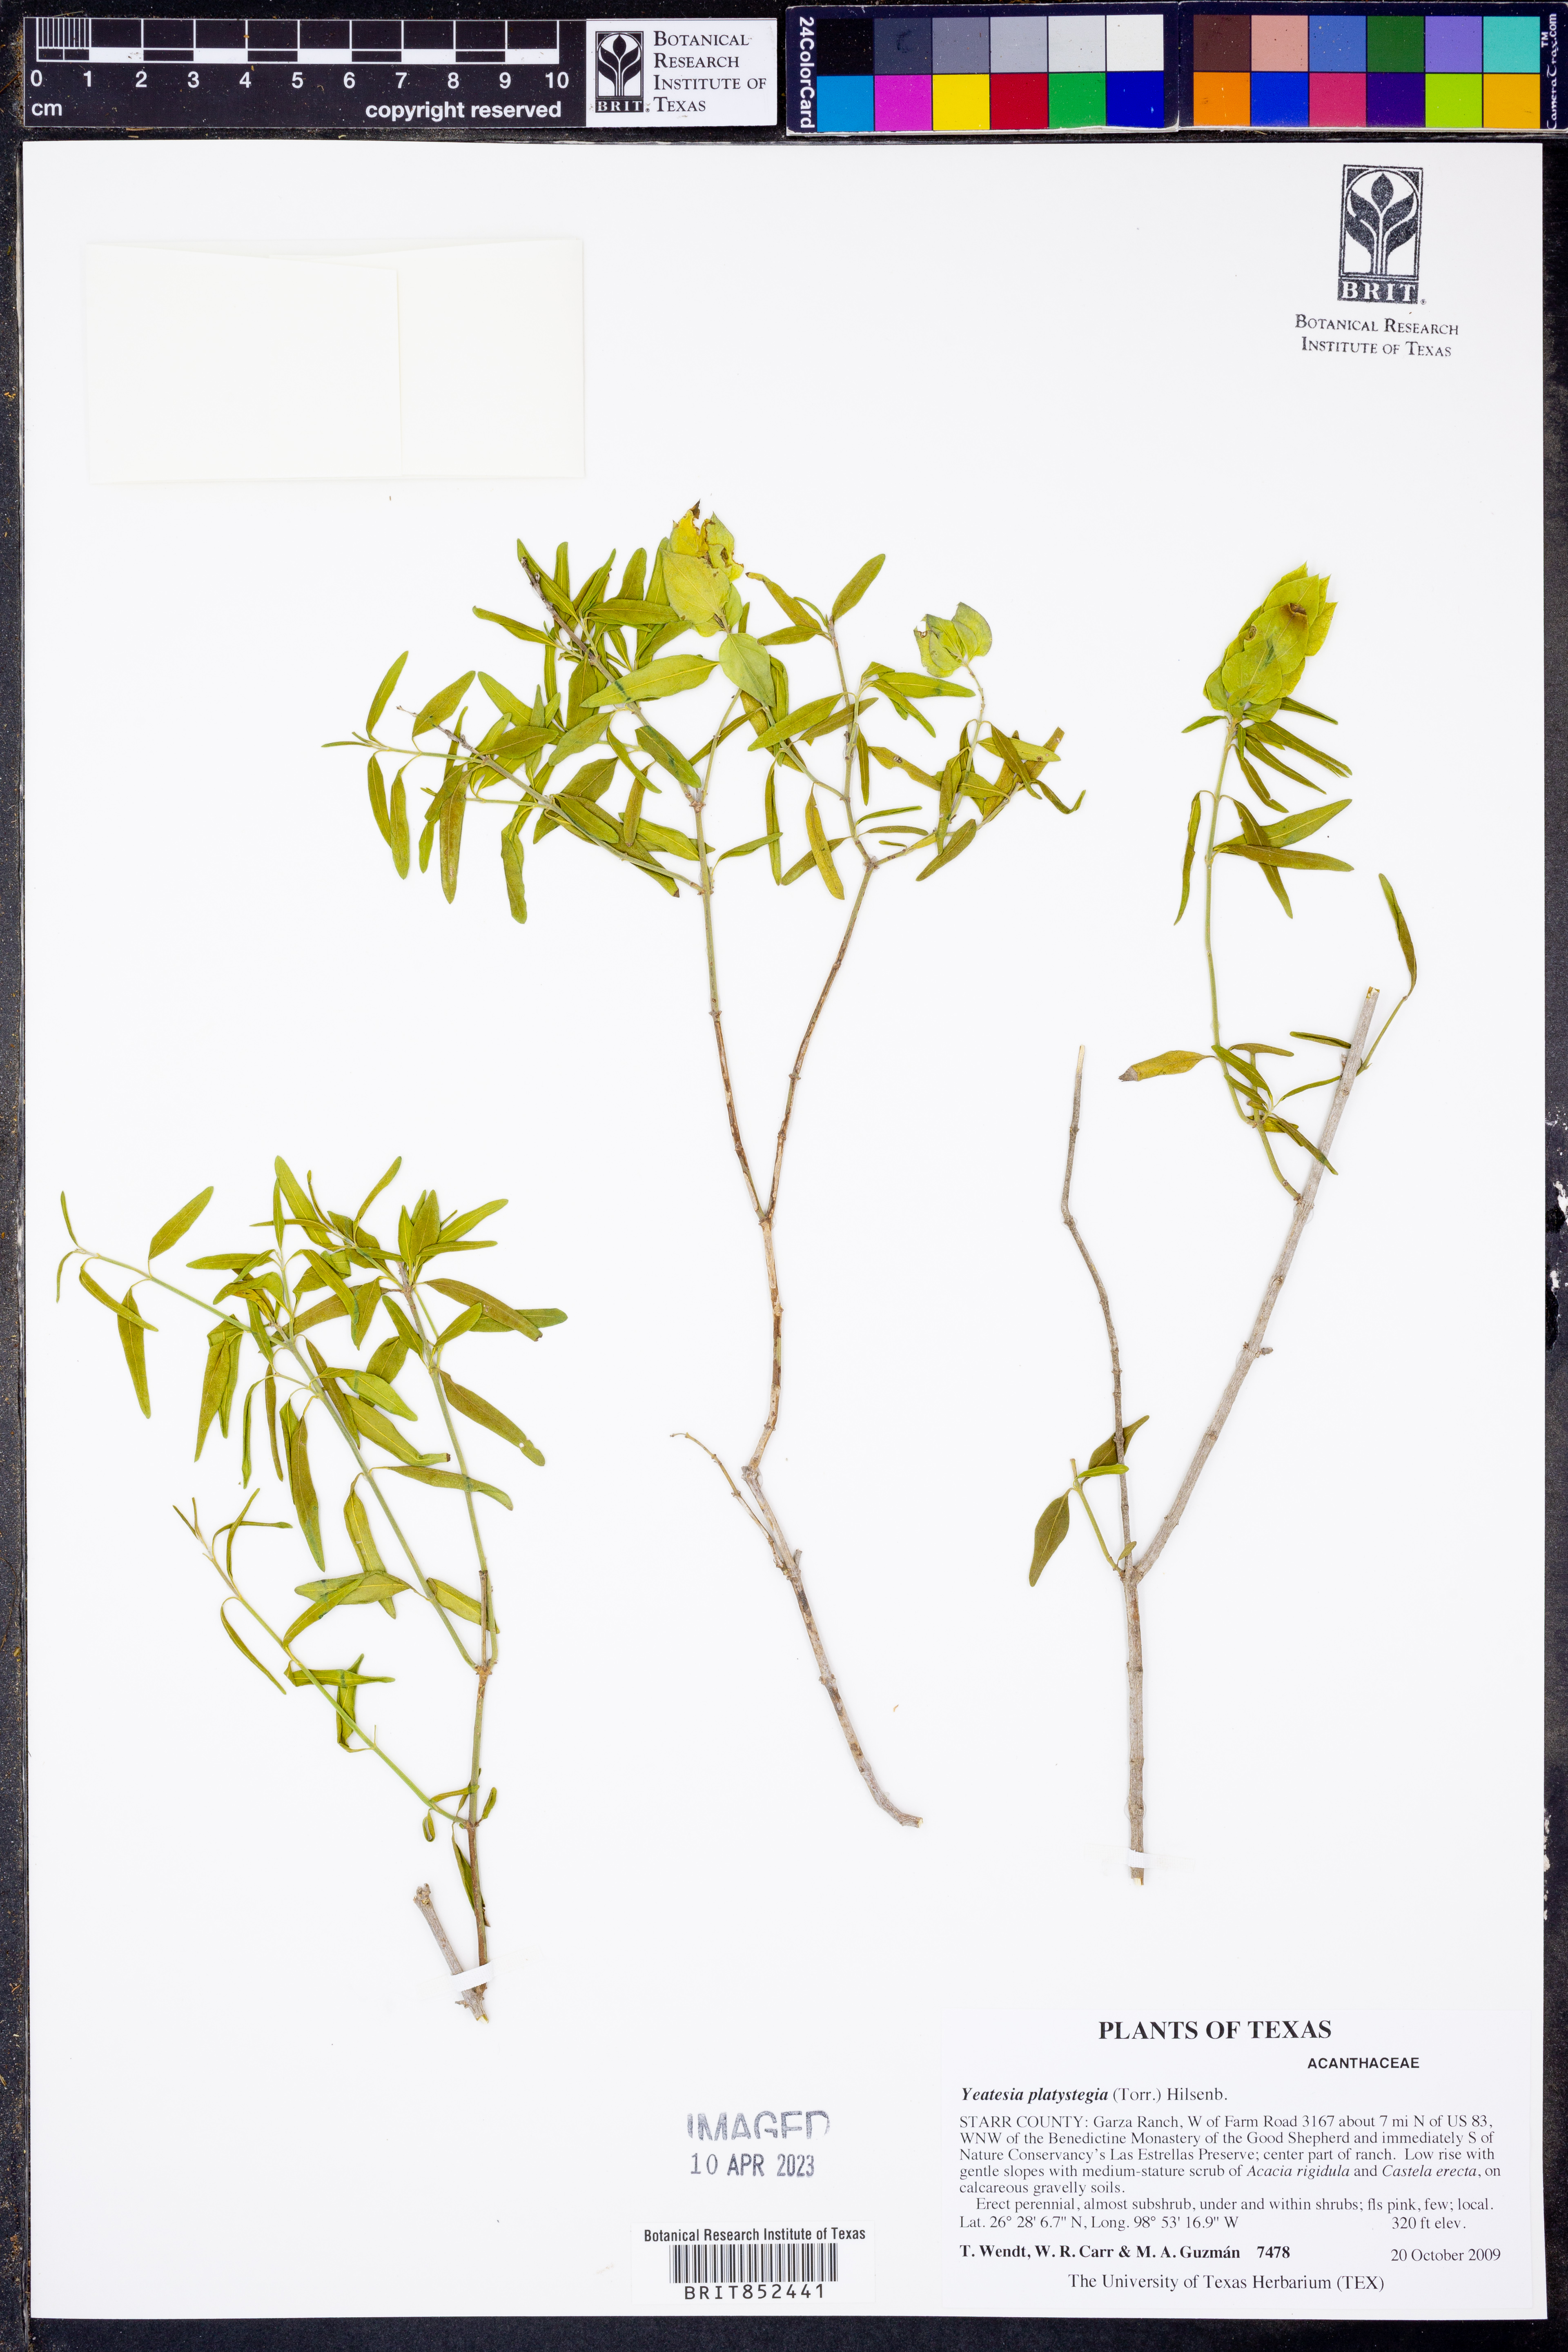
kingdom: Plantae
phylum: Tracheophyta
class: Magnoliopsida
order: Lamiales
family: Acanthaceae
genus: Yeatesia
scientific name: Yeatesia platystegia
